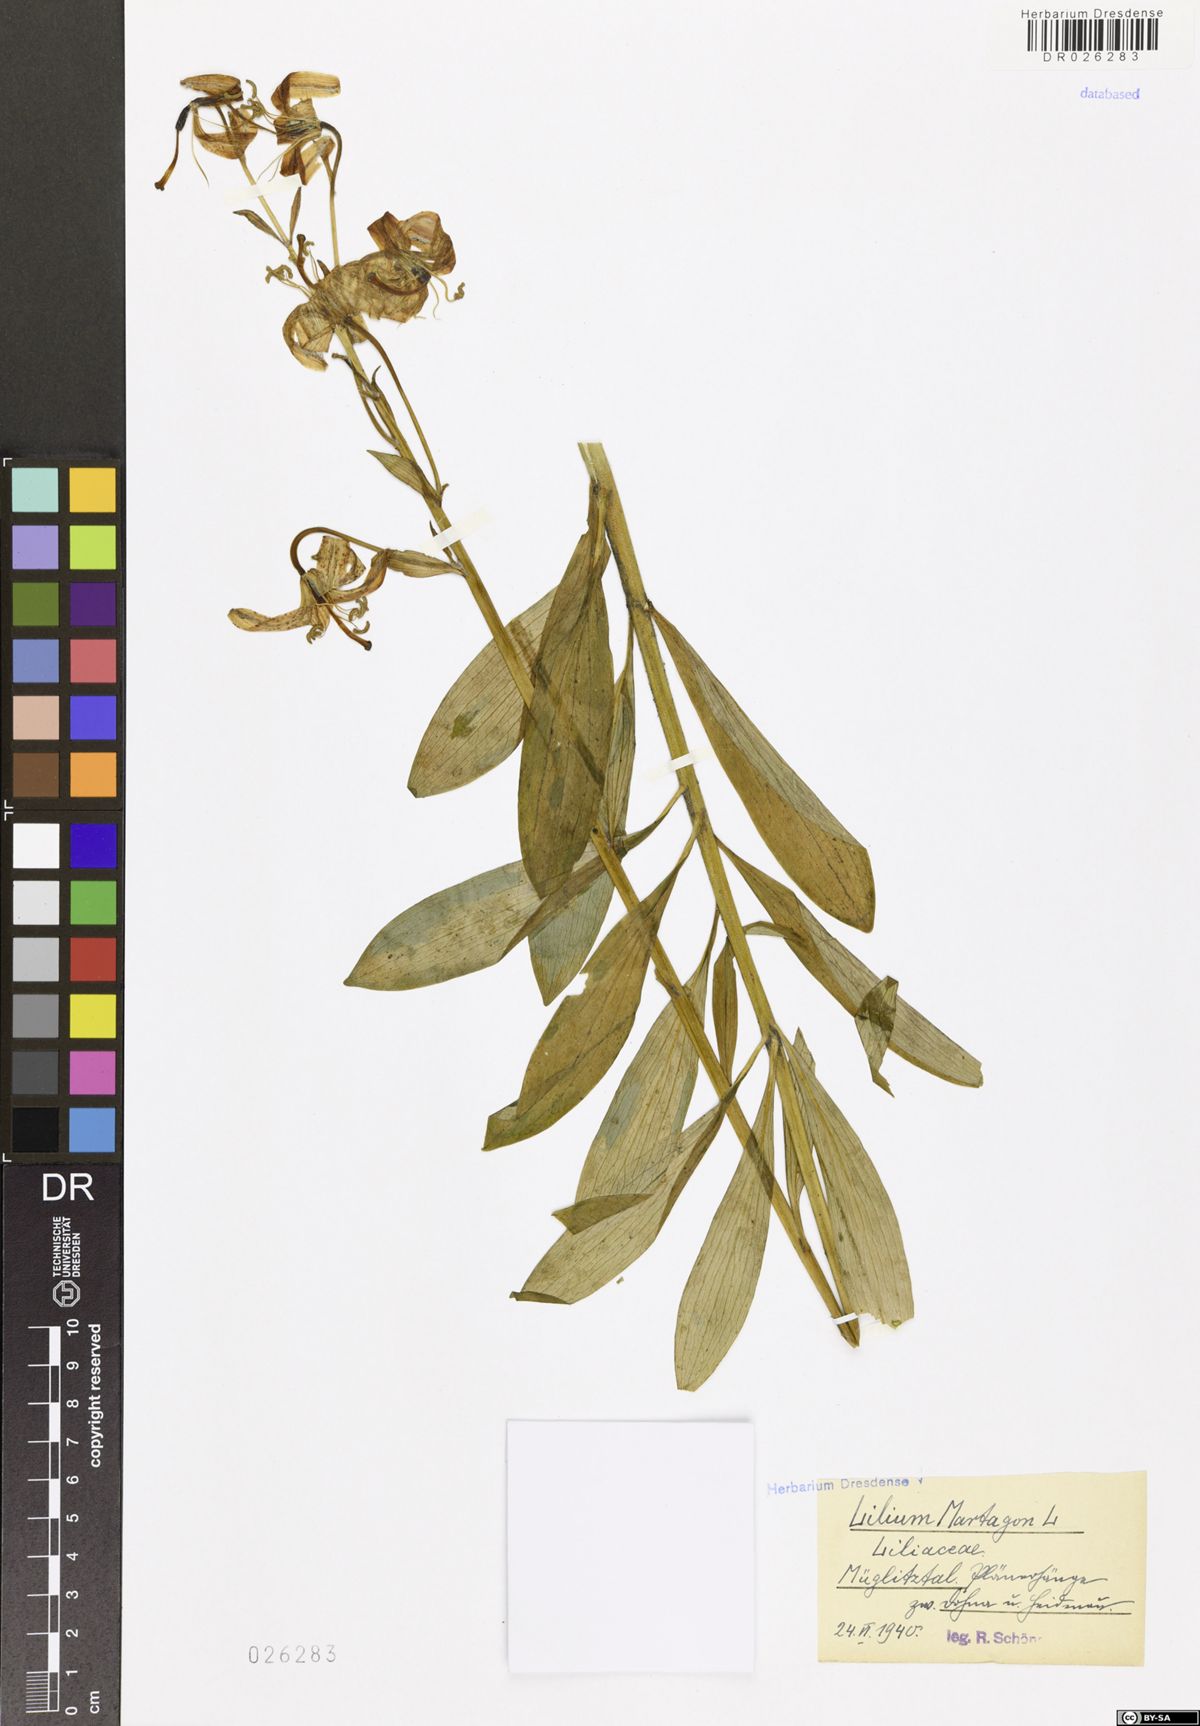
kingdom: Plantae
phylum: Tracheophyta
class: Liliopsida
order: Liliales
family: Liliaceae
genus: Lilium
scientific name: Lilium martagon
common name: Martagon lily
